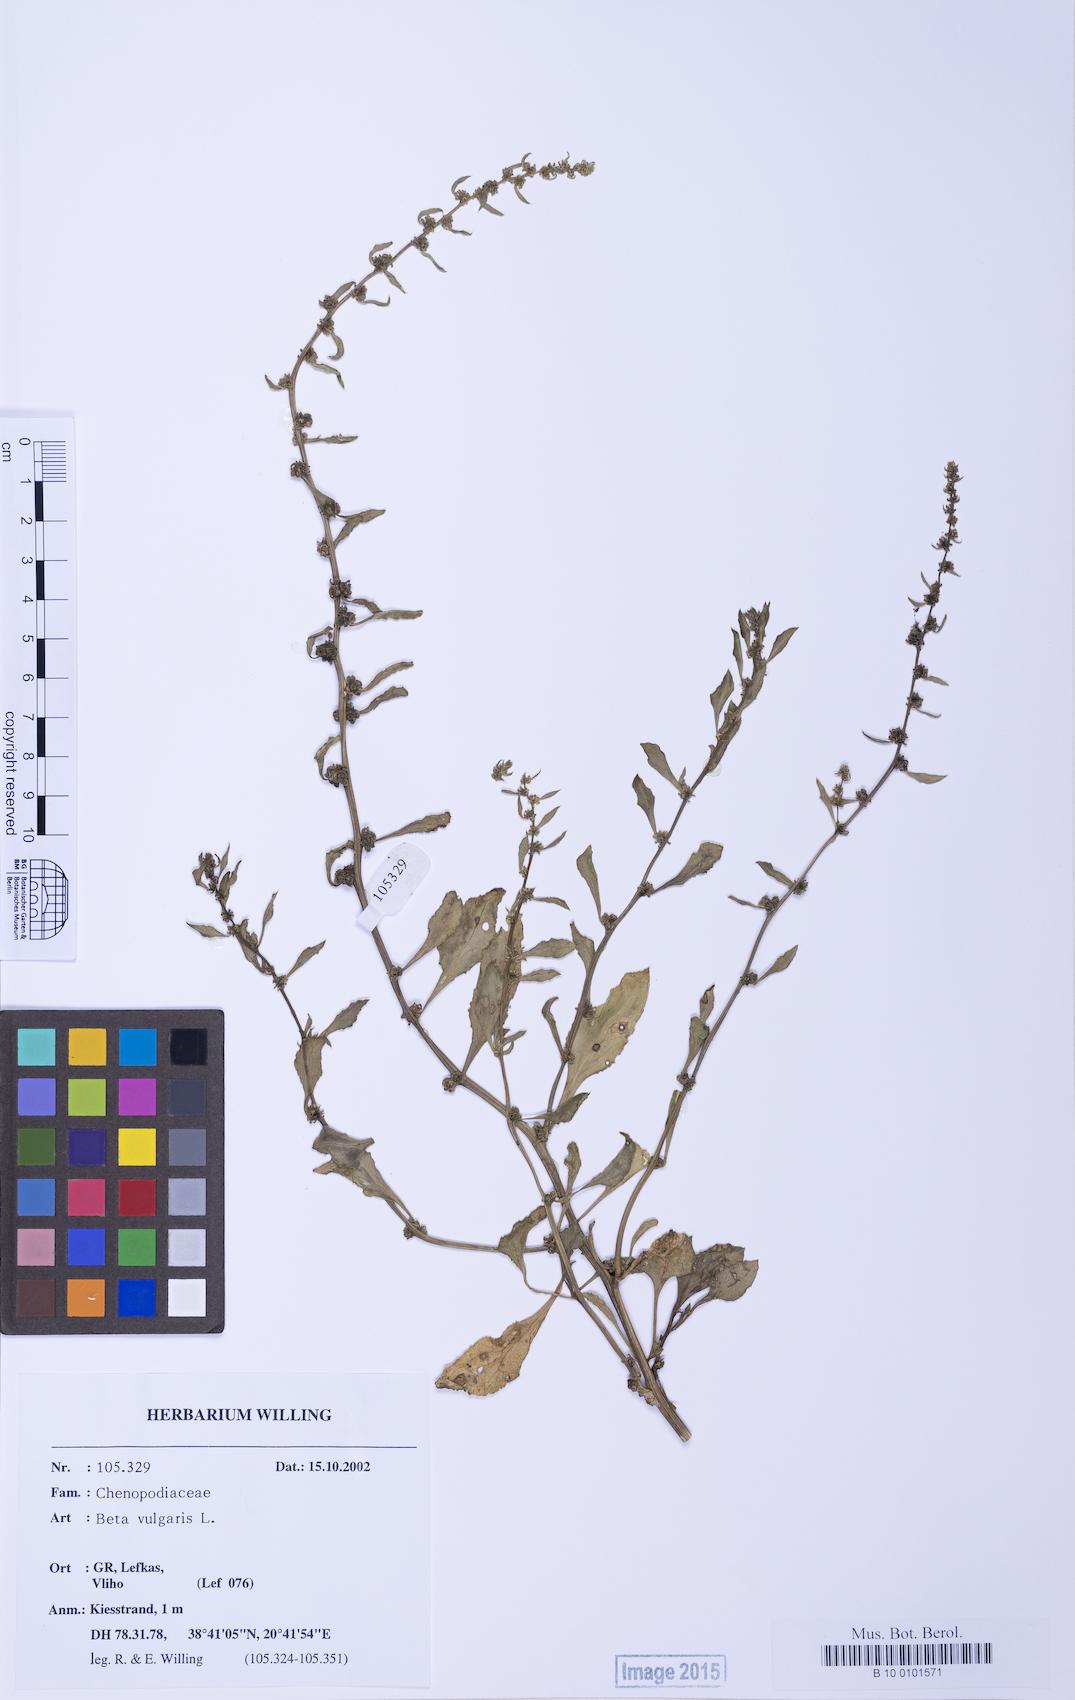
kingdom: Plantae
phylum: Tracheophyta
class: Magnoliopsida
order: Caryophyllales
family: Amaranthaceae
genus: Beta
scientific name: Beta macrocarpa
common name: Beet
